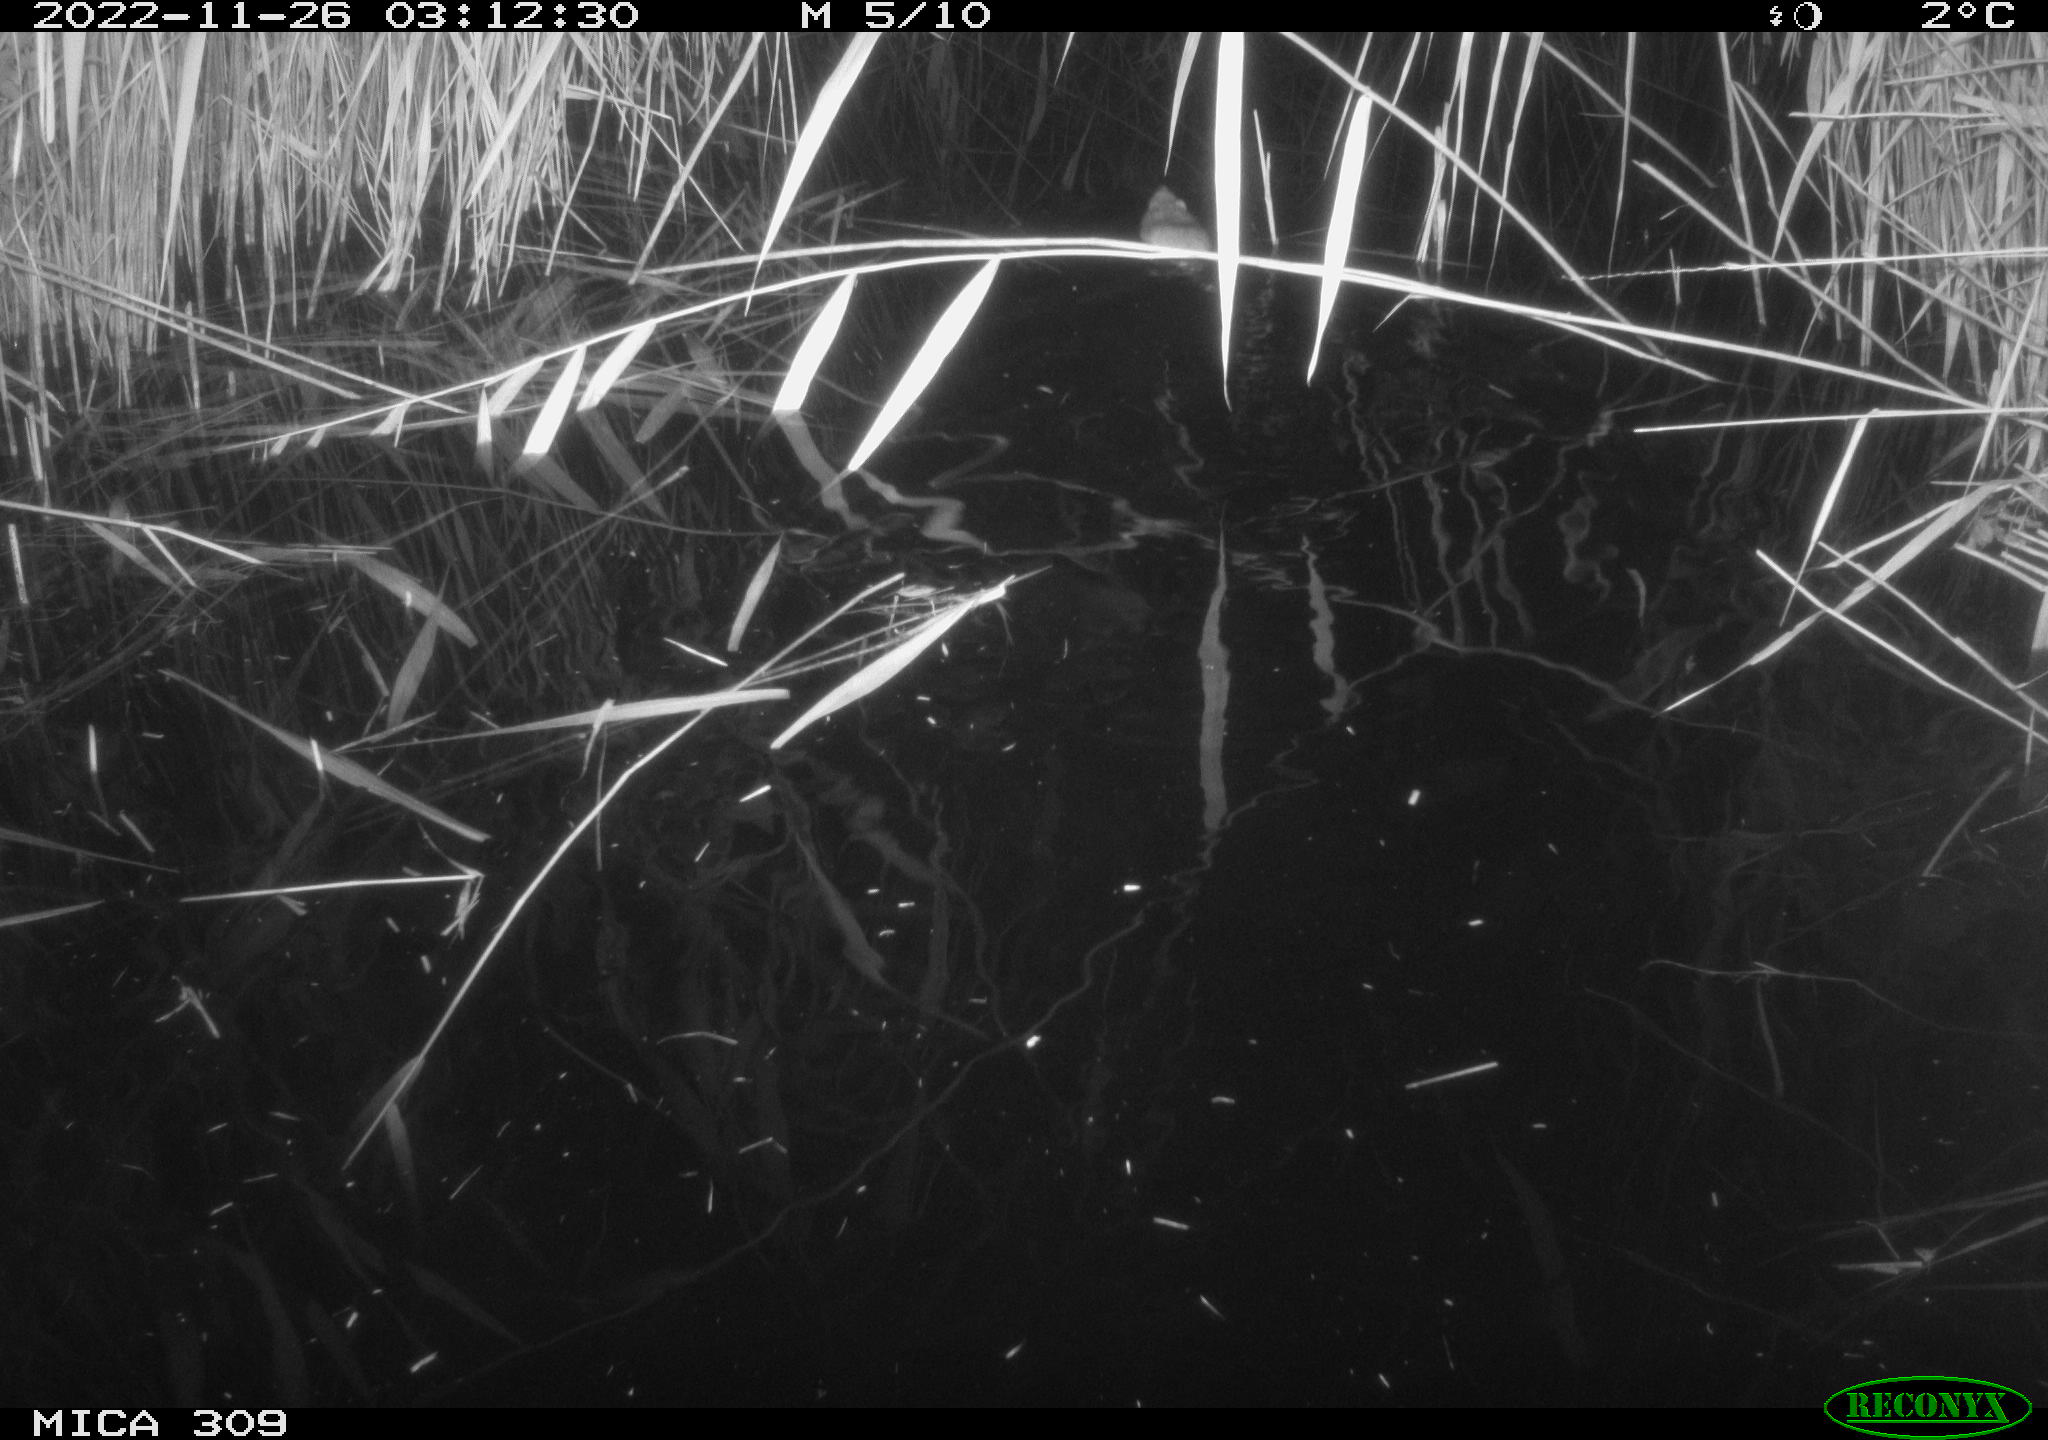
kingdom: Animalia
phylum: Chordata
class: Mammalia
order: Rodentia
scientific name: Rodentia
